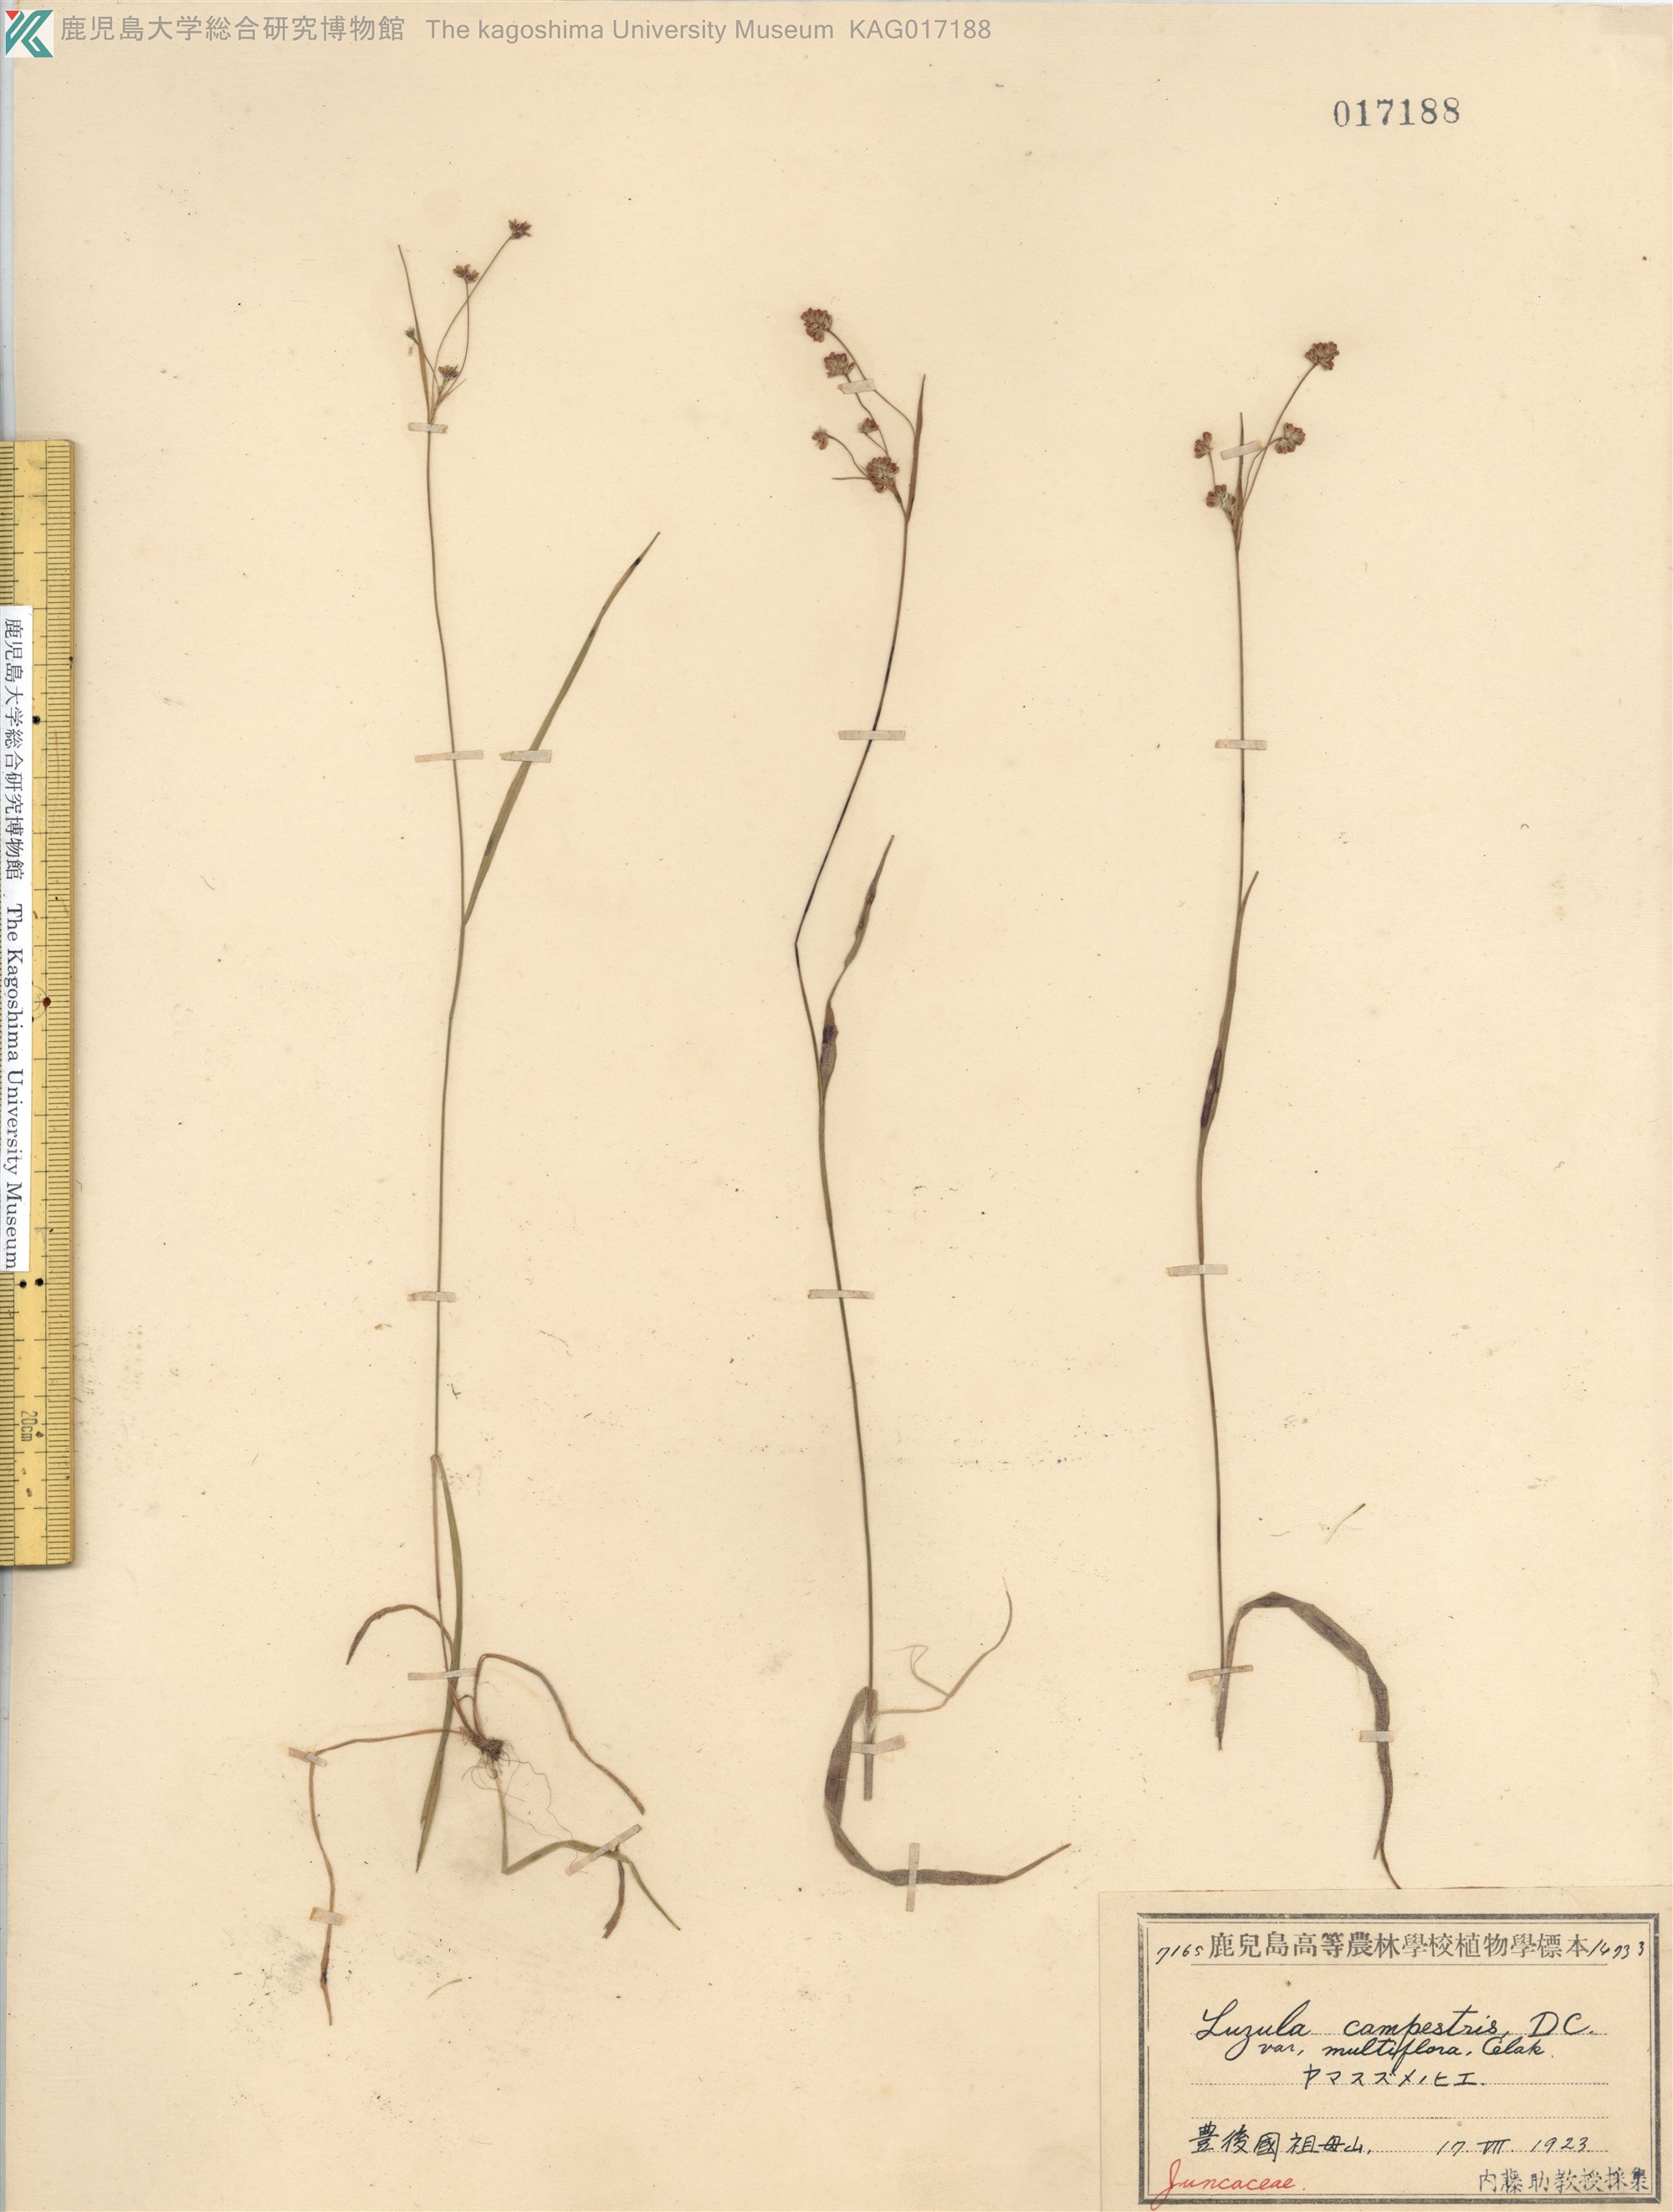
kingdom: Plantae
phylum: Tracheophyta
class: Liliopsida
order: Poales
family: Juncaceae
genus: Luzula
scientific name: Luzula multiflora
